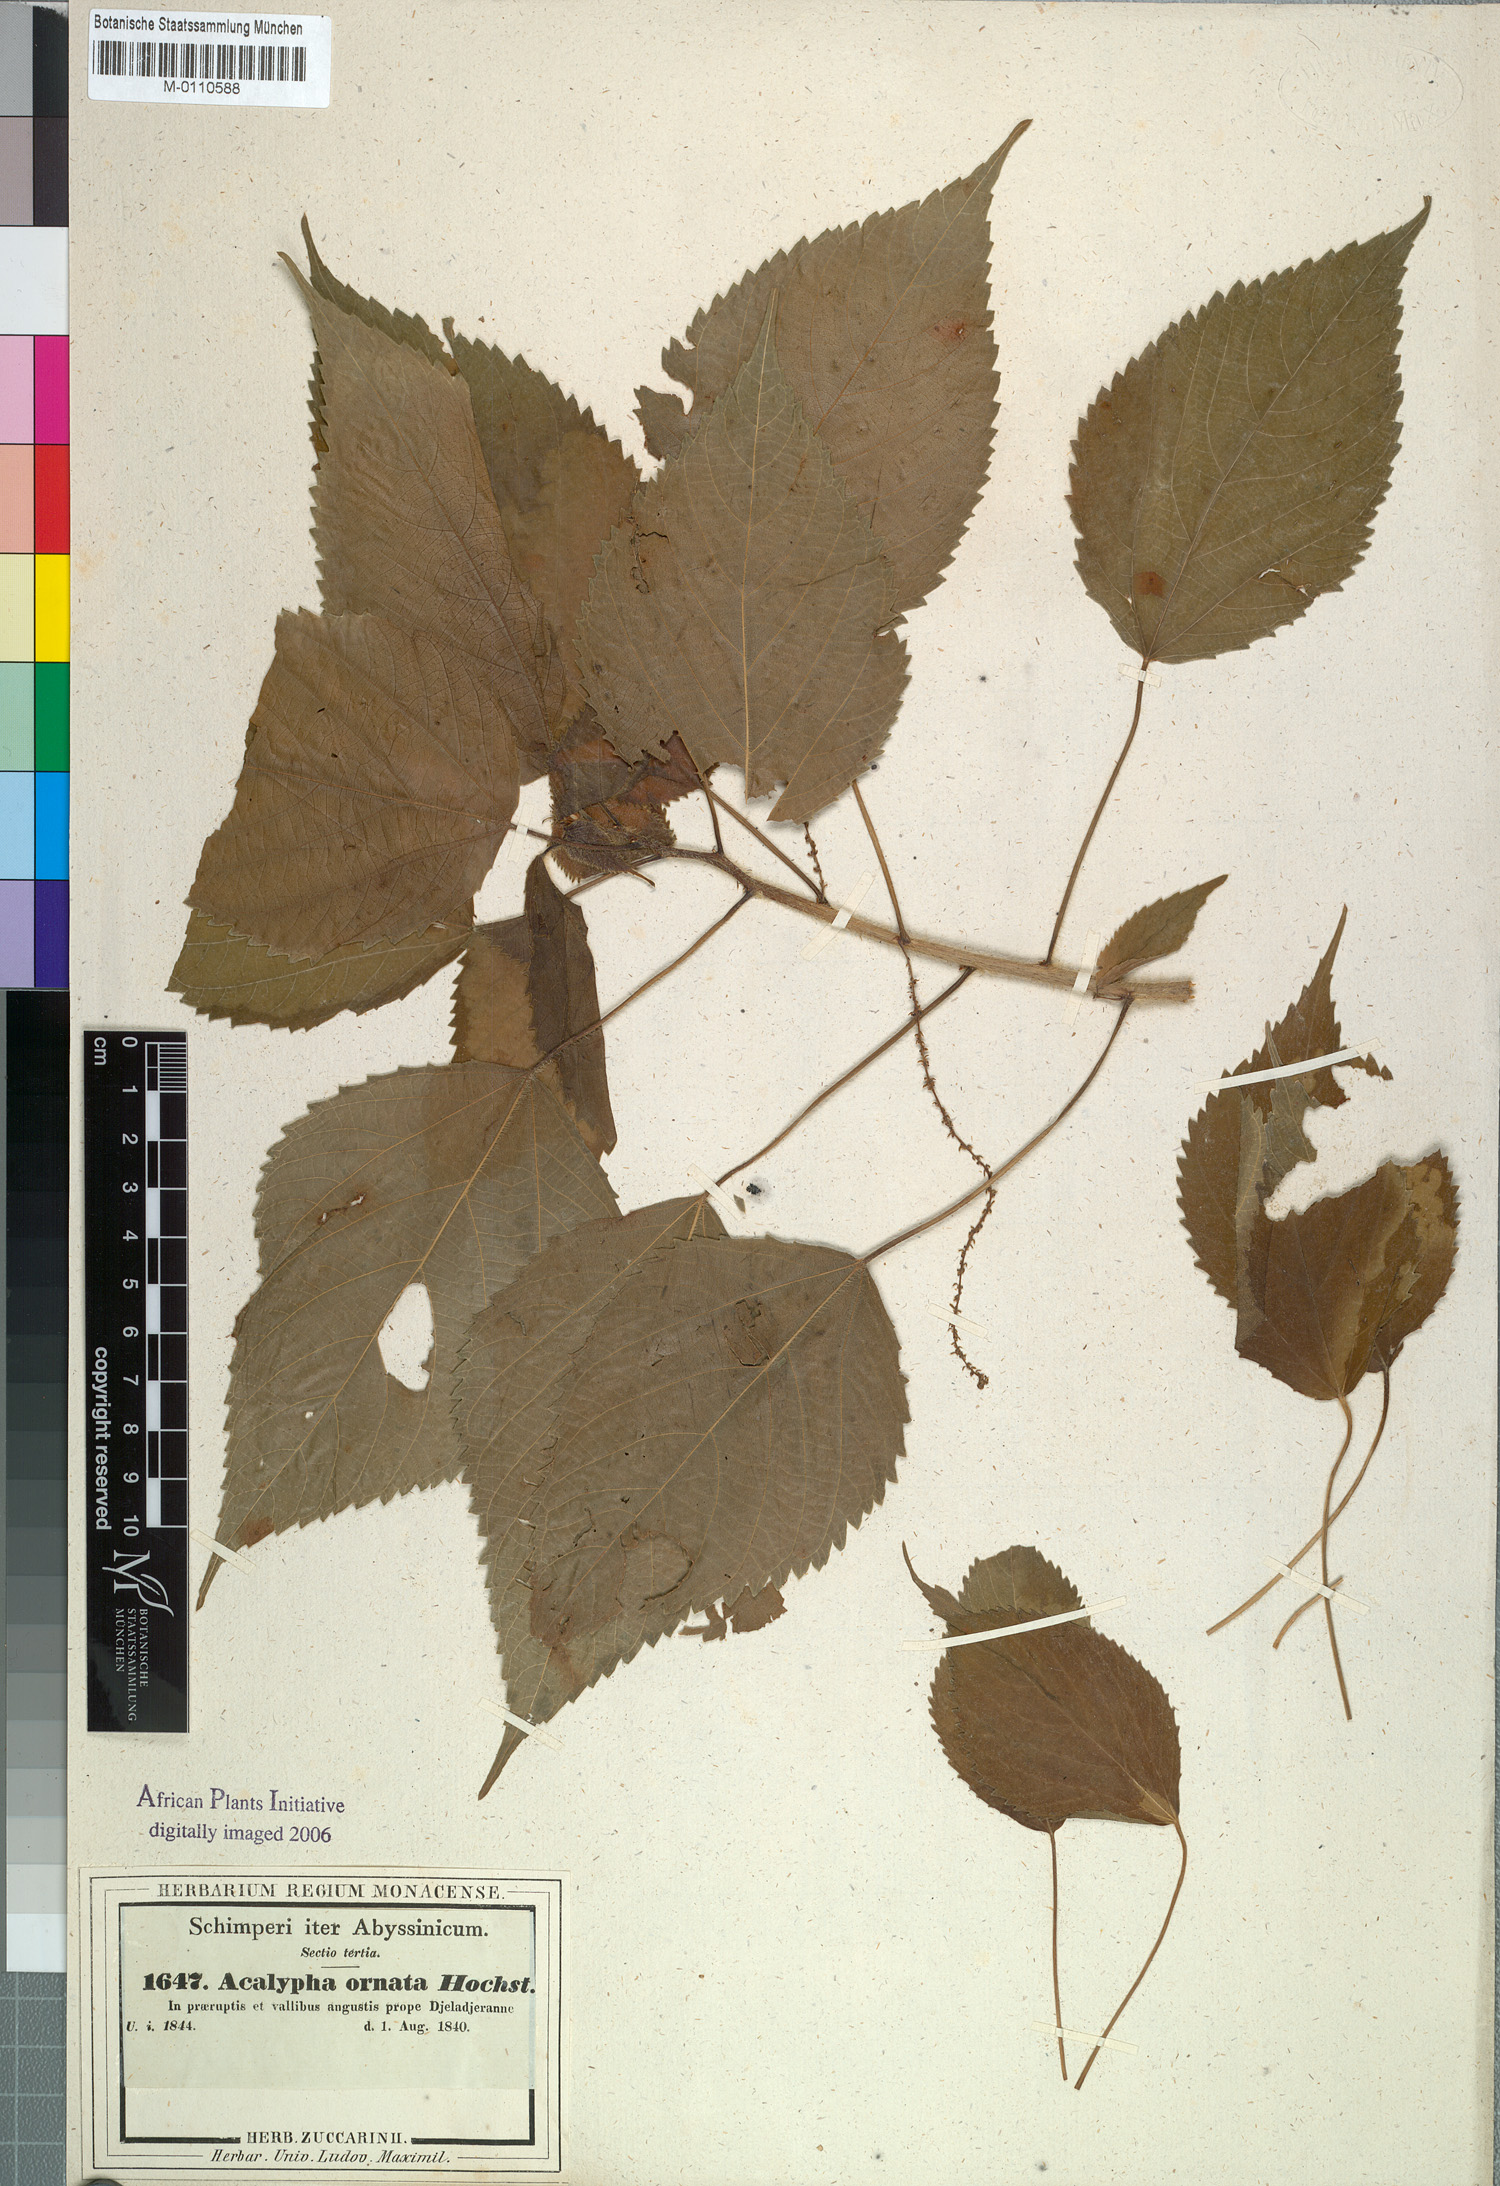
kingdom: Plantae
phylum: Tracheophyta
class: Magnoliopsida
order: Malpighiales
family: Euphorbiaceae
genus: Acalypha
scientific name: Acalypha ornata
